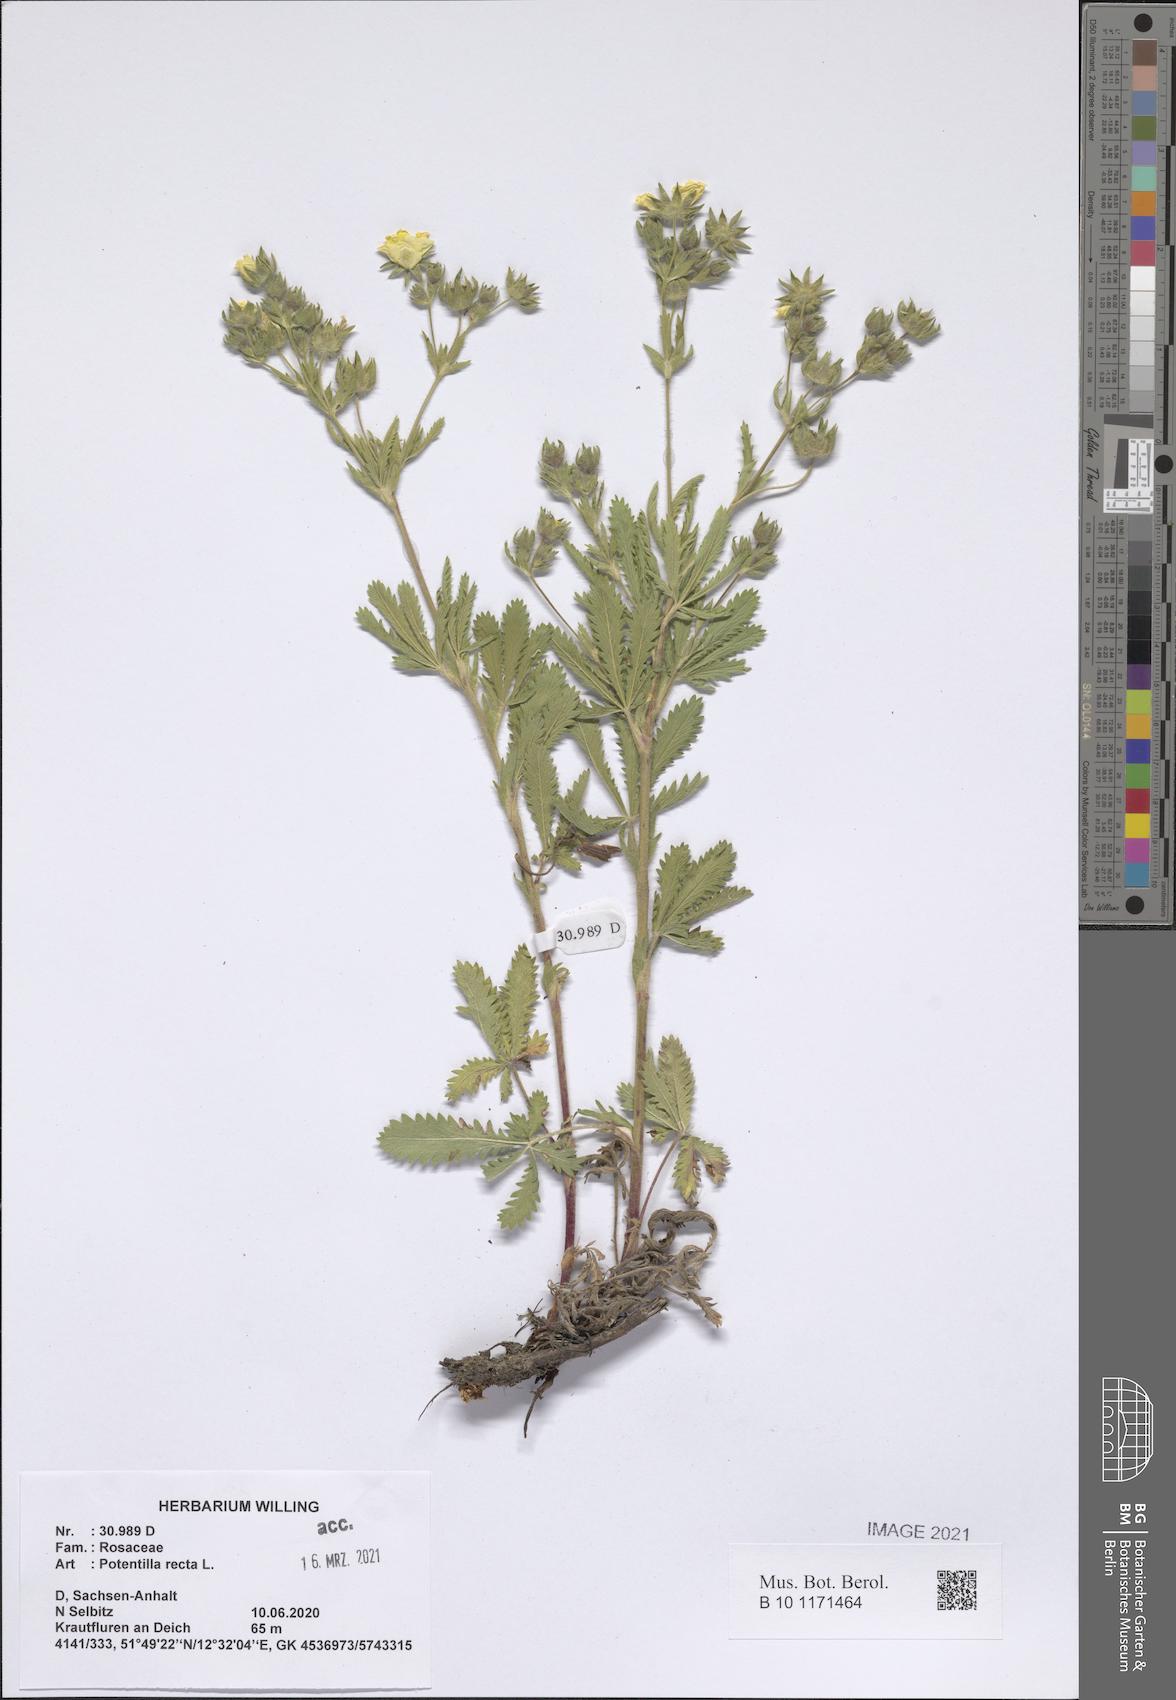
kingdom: Plantae
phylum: Tracheophyta
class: Magnoliopsida
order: Rosales
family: Rosaceae
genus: Potentilla
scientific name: Potentilla recta
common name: Sulphur cinquefoil
